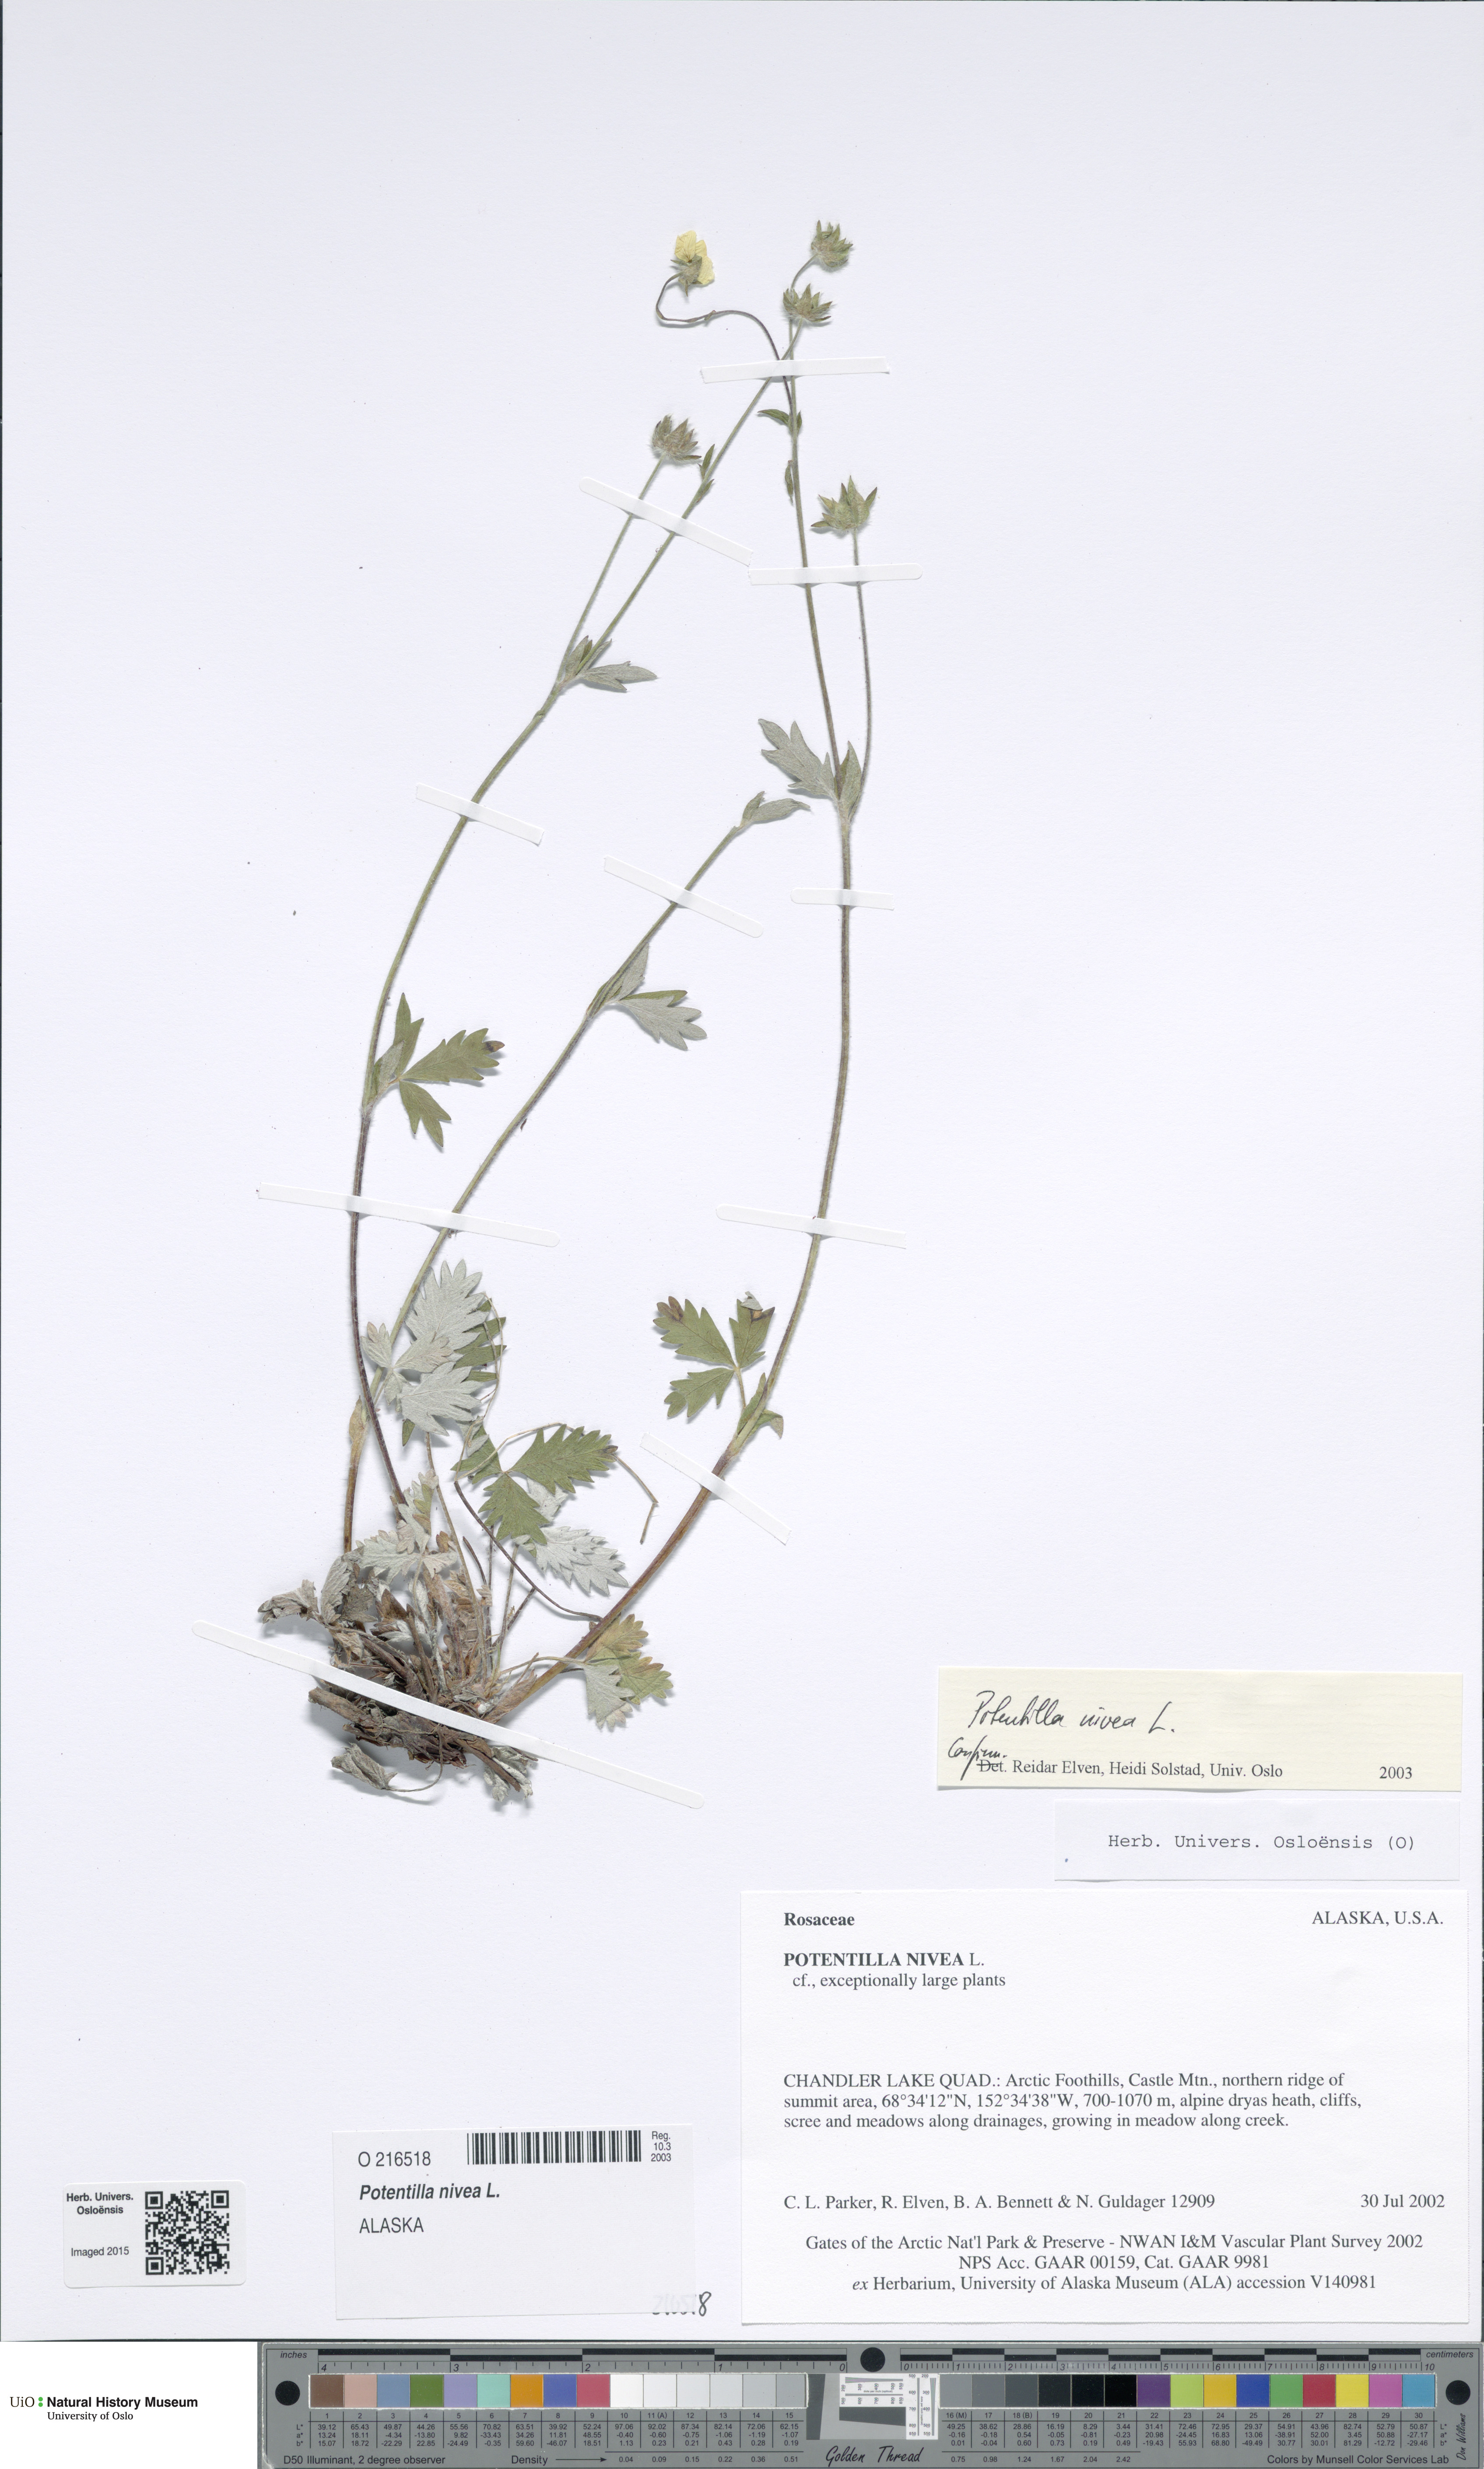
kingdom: Plantae
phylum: Tracheophyta
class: Magnoliopsida
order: Rosales
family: Rosaceae
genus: Potentilla
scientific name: Potentilla arenosa
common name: Bluff cinquefoil
